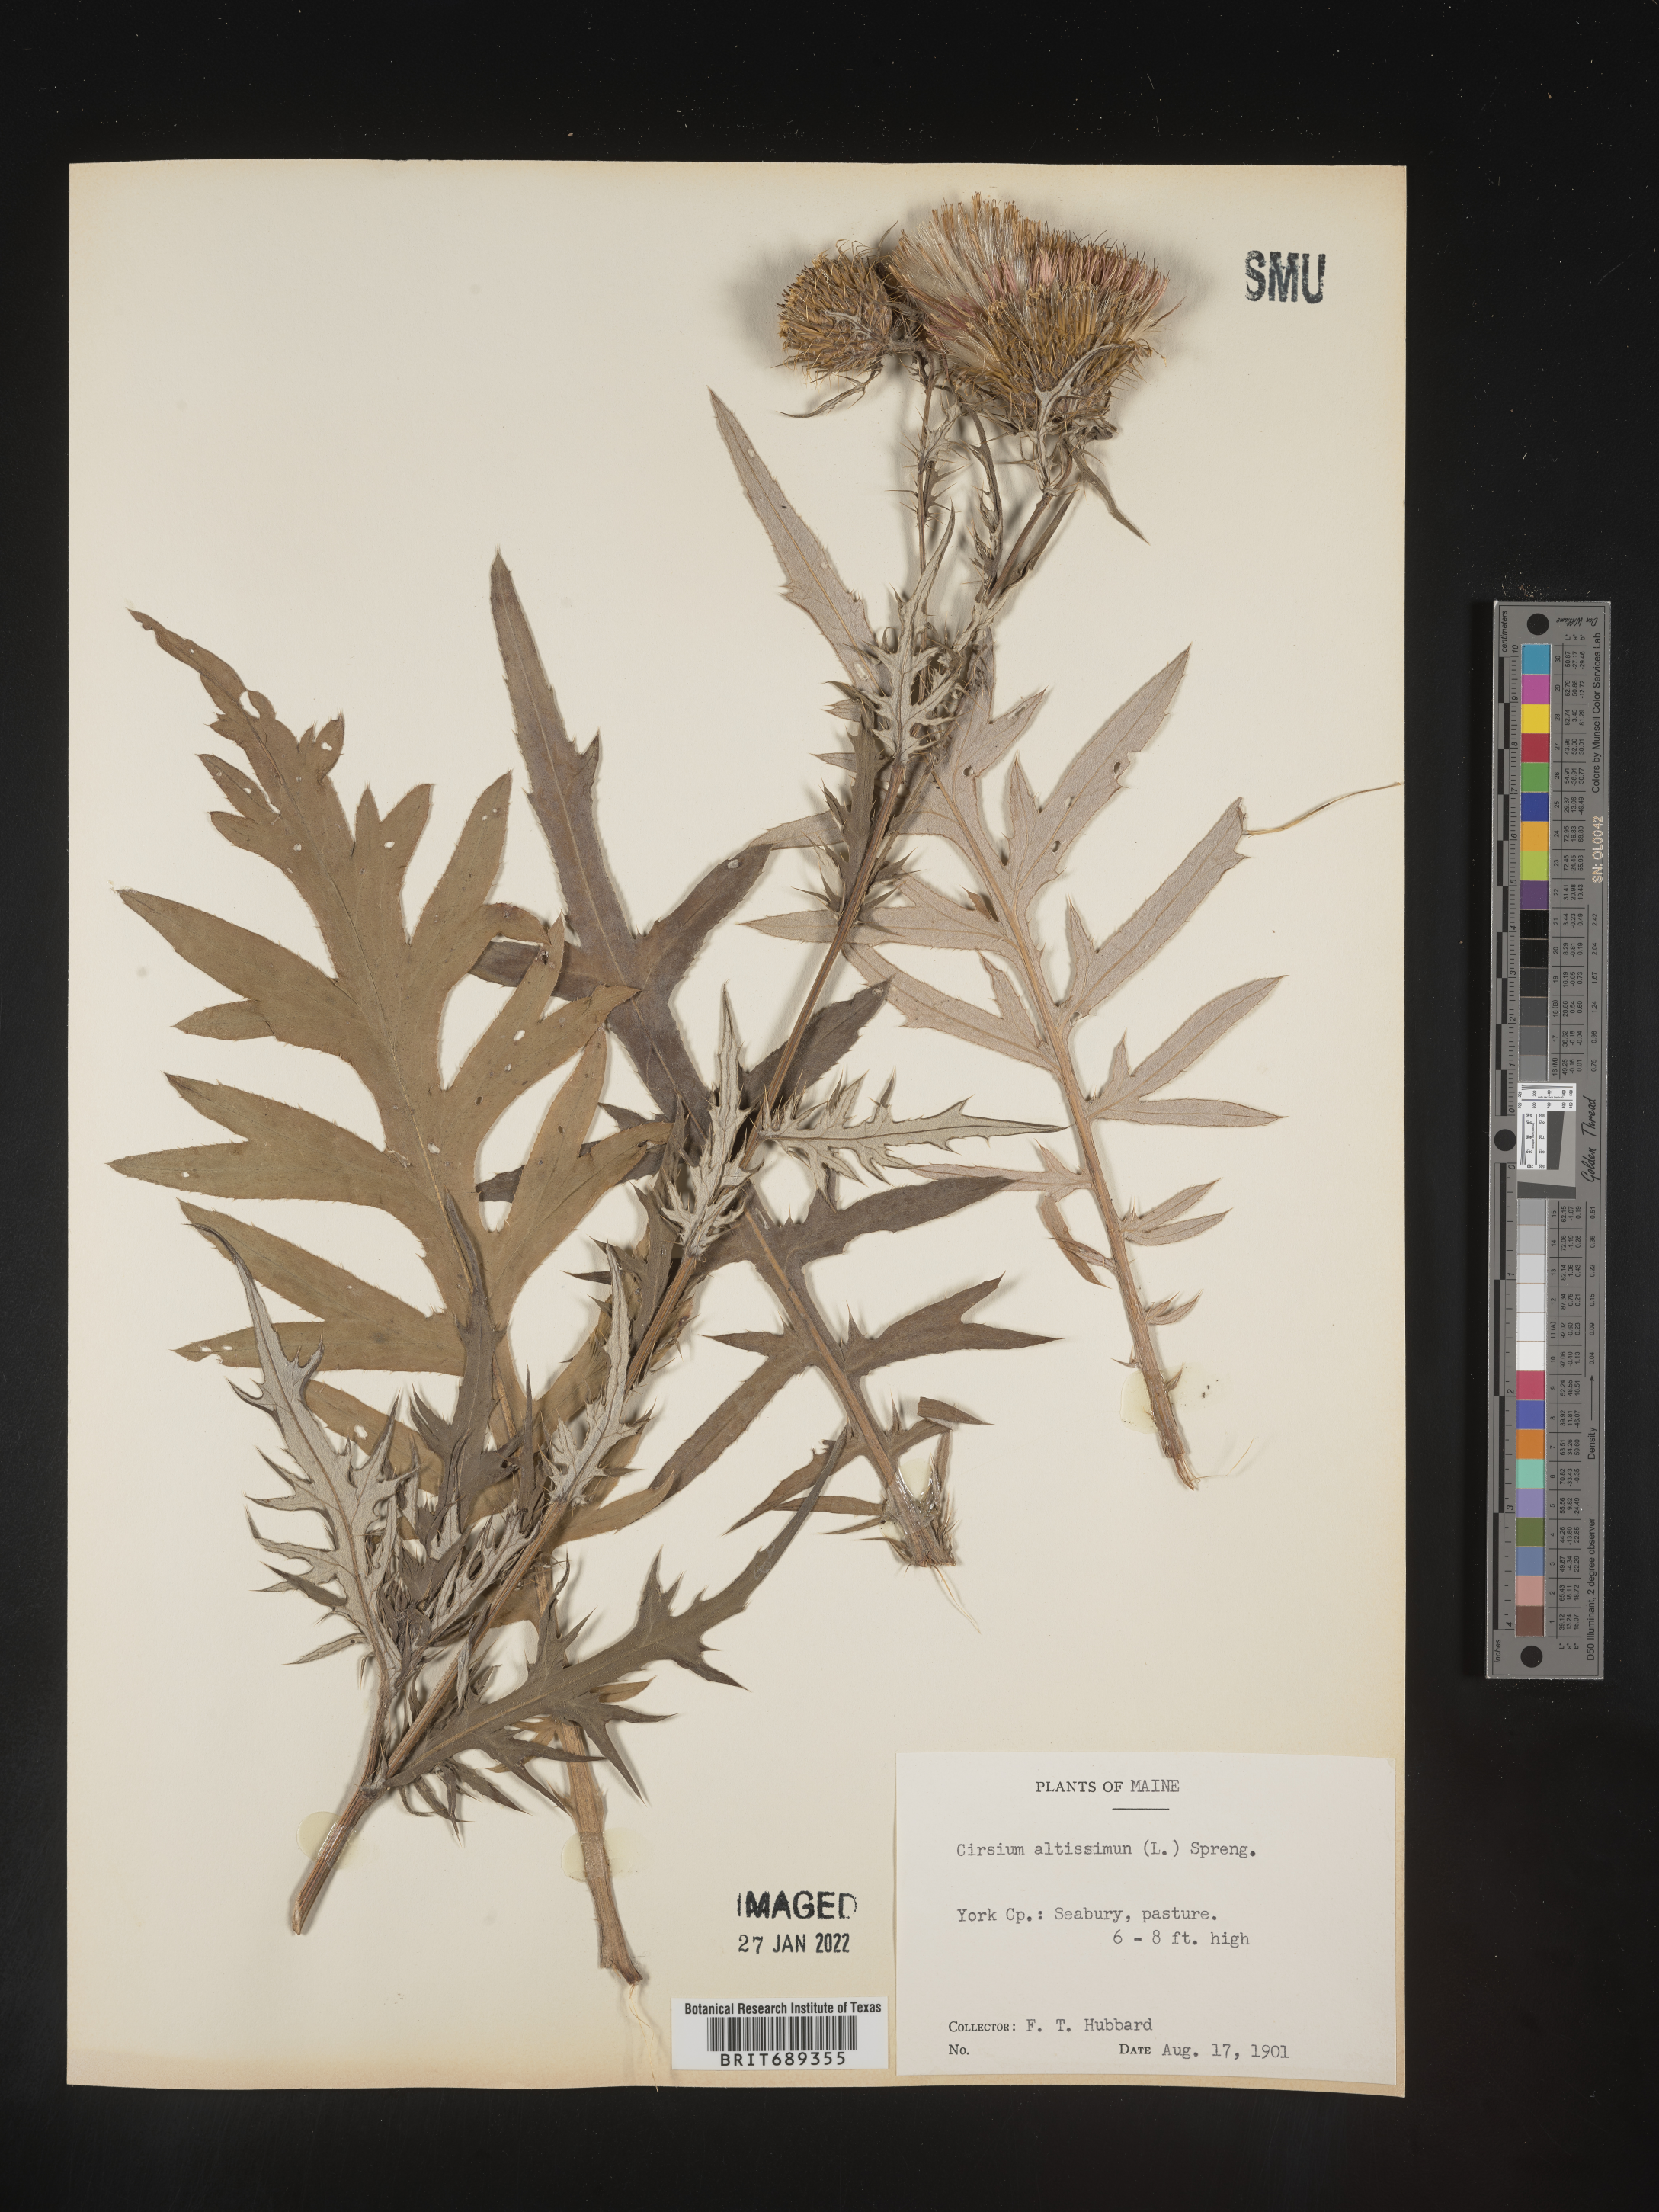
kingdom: Plantae
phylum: Tracheophyta
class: Magnoliopsida
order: Asterales
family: Asteraceae
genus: Cirsium
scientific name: Cirsium altissimum
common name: Roadside thistle
